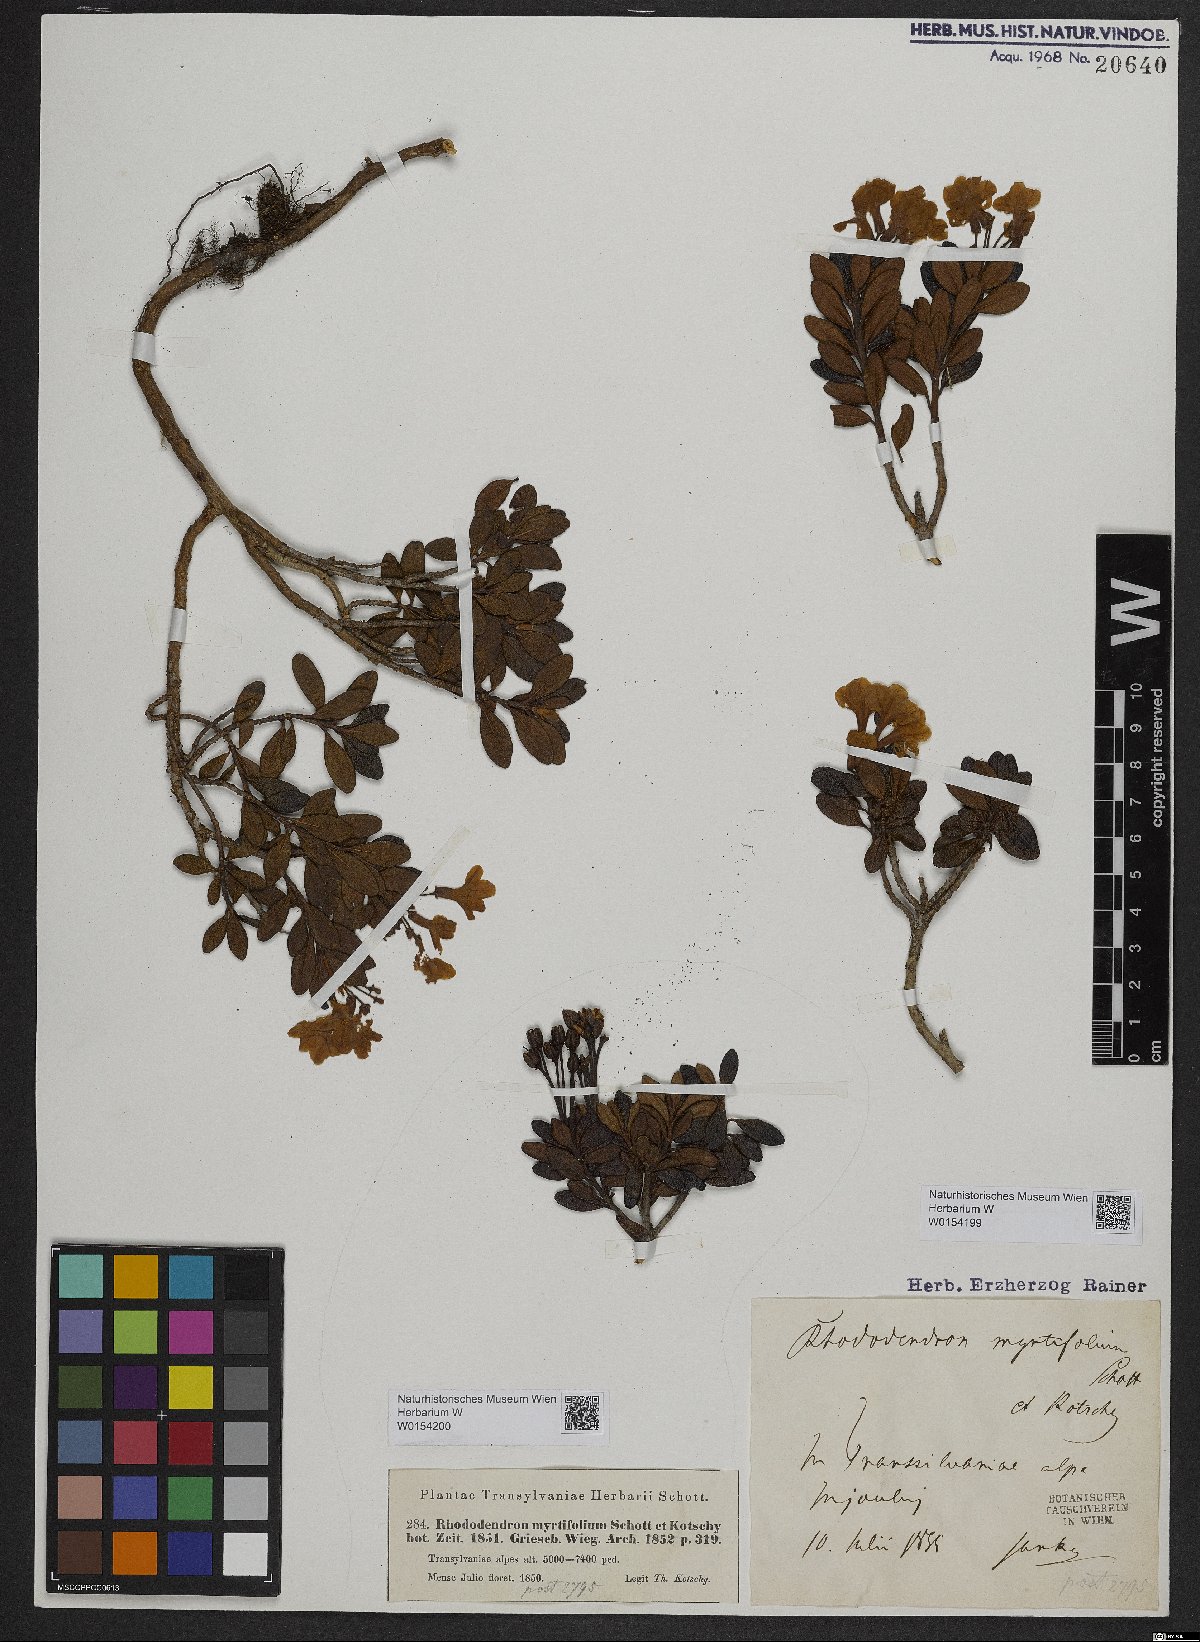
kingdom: Plantae
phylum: Tracheophyta
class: Magnoliopsida
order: Ericales
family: Ericaceae
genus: Rhododendron
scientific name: Rhododendron kotschyi
